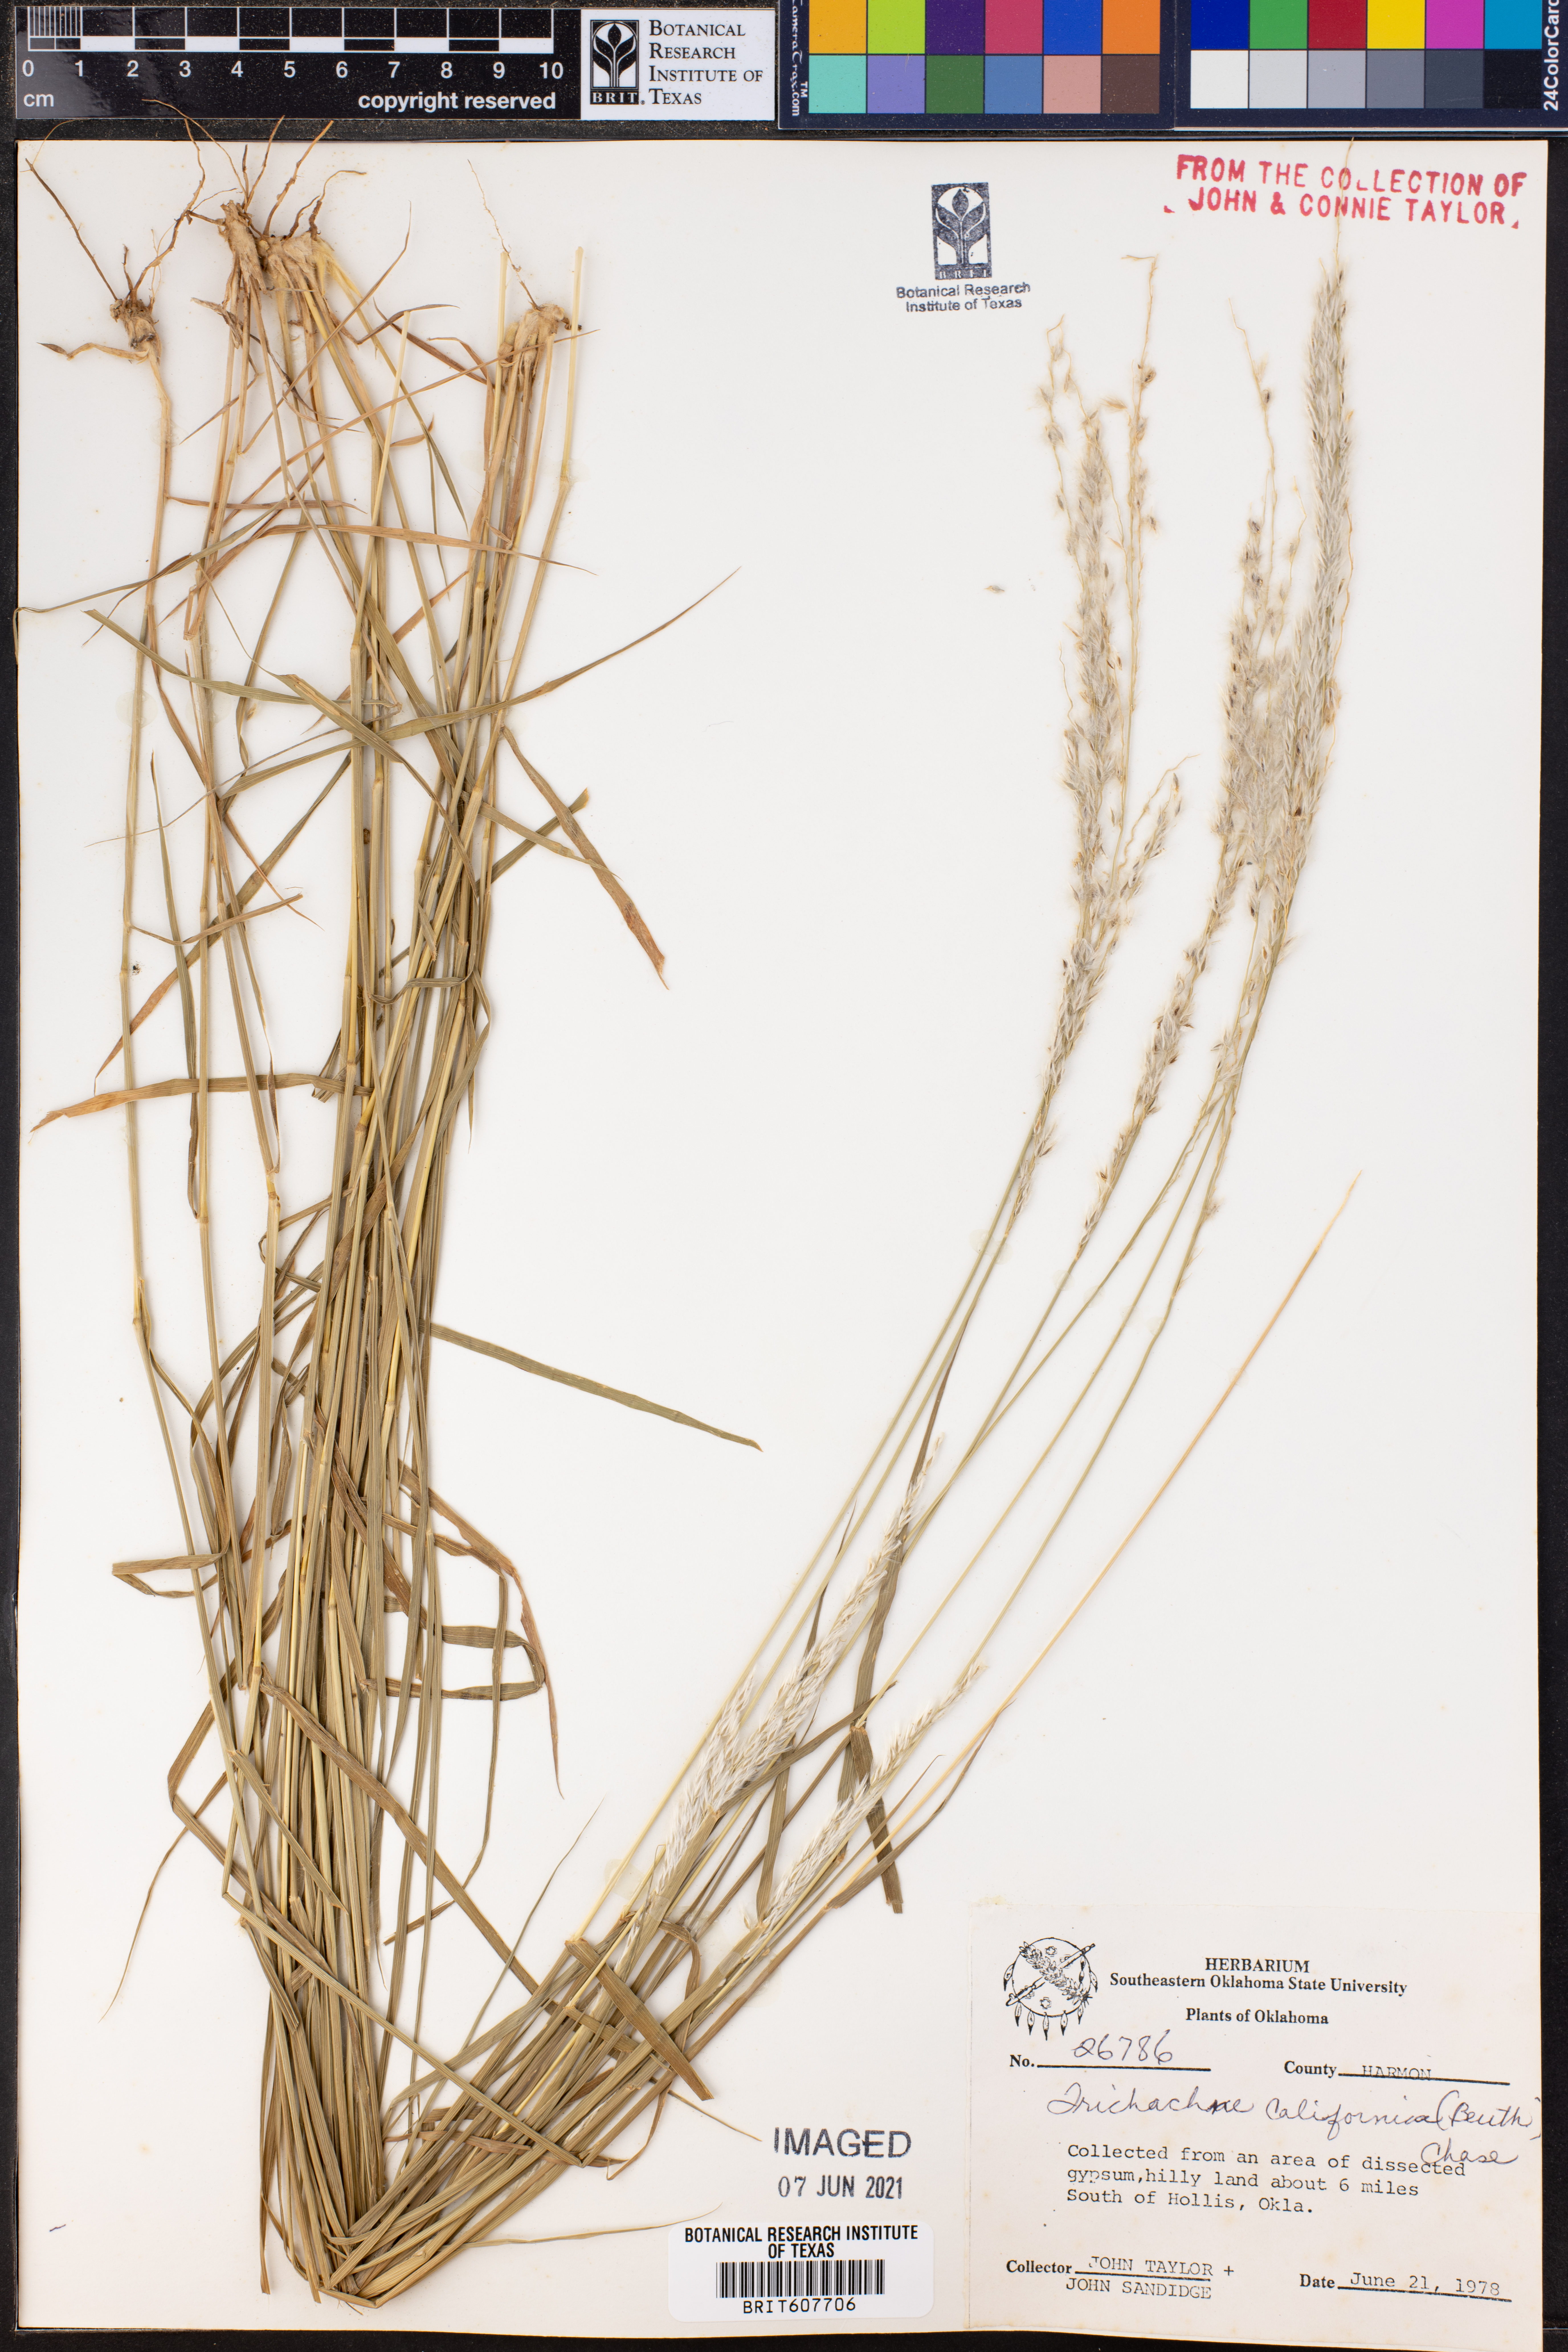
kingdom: Plantae
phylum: Tracheophyta
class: Liliopsida
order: Poales
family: Poaceae
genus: Digitaria
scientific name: Digitaria californica
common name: Arizona cottontop
